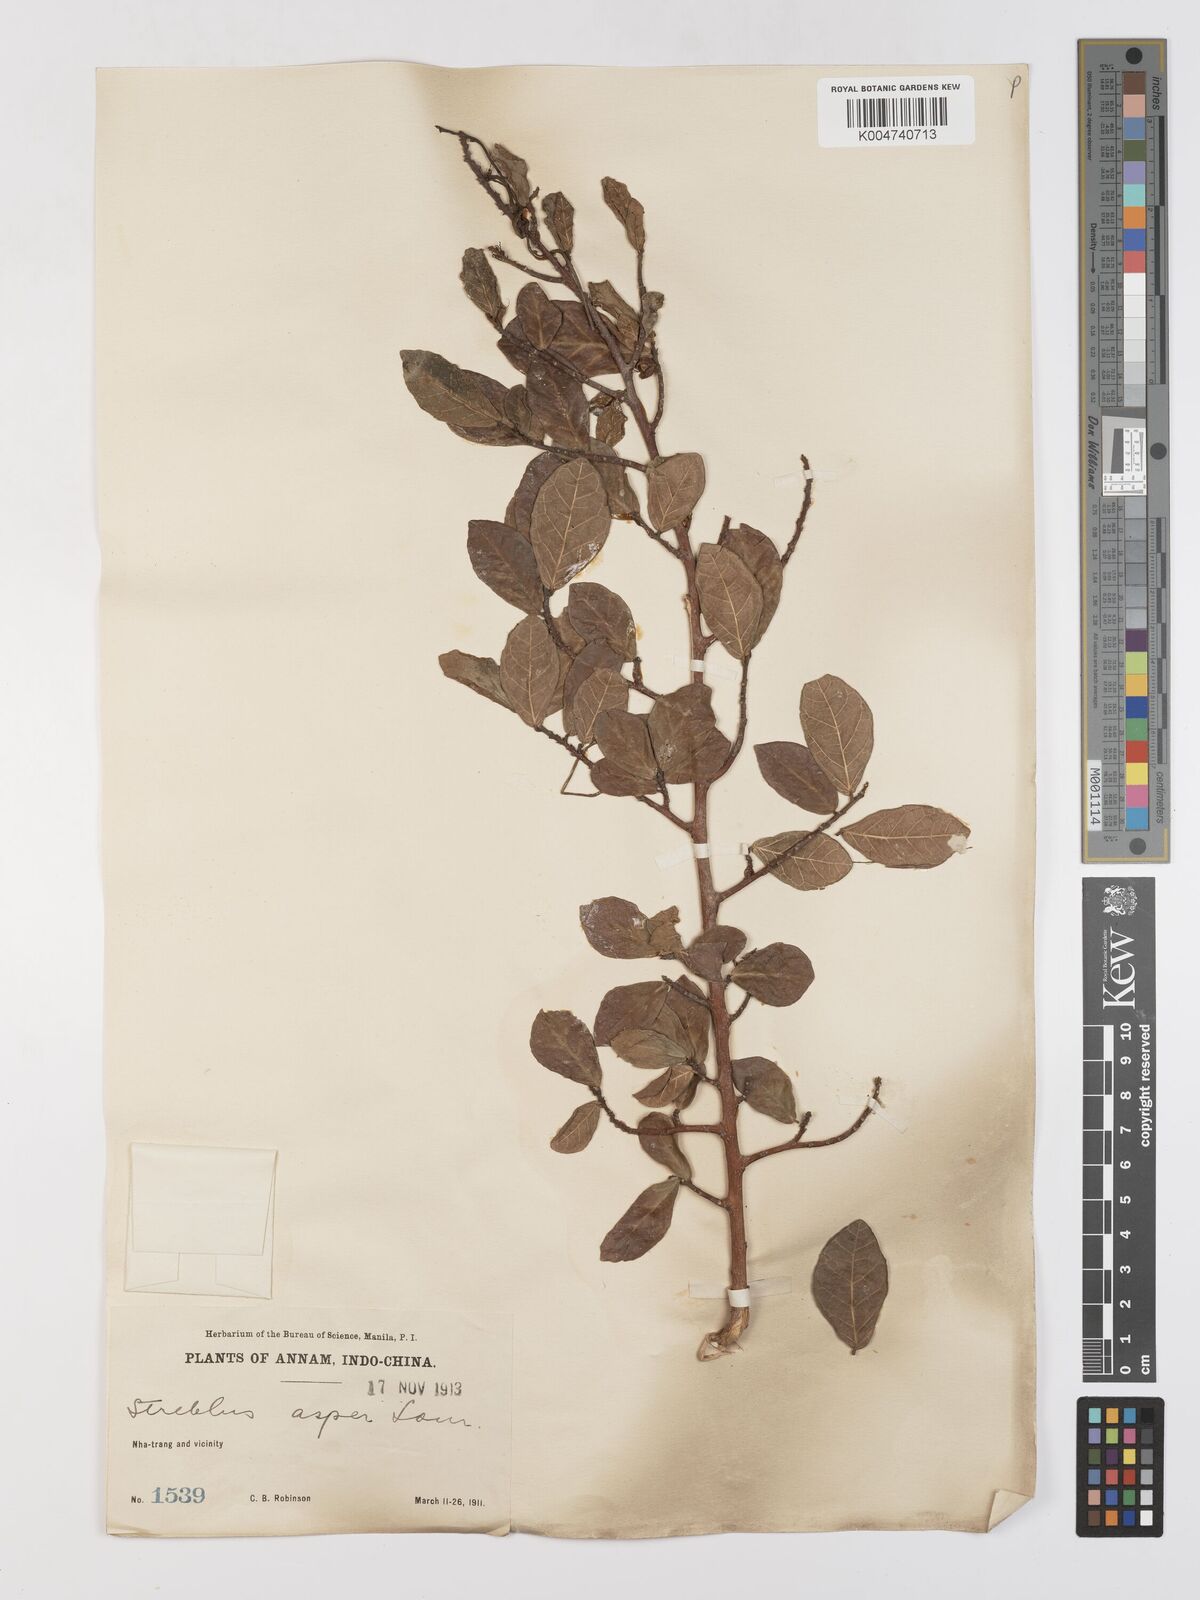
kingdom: Plantae
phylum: Tracheophyta
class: Magnoliopsida
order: Rosales
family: Moraceae
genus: Streblus
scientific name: Streblus asper
